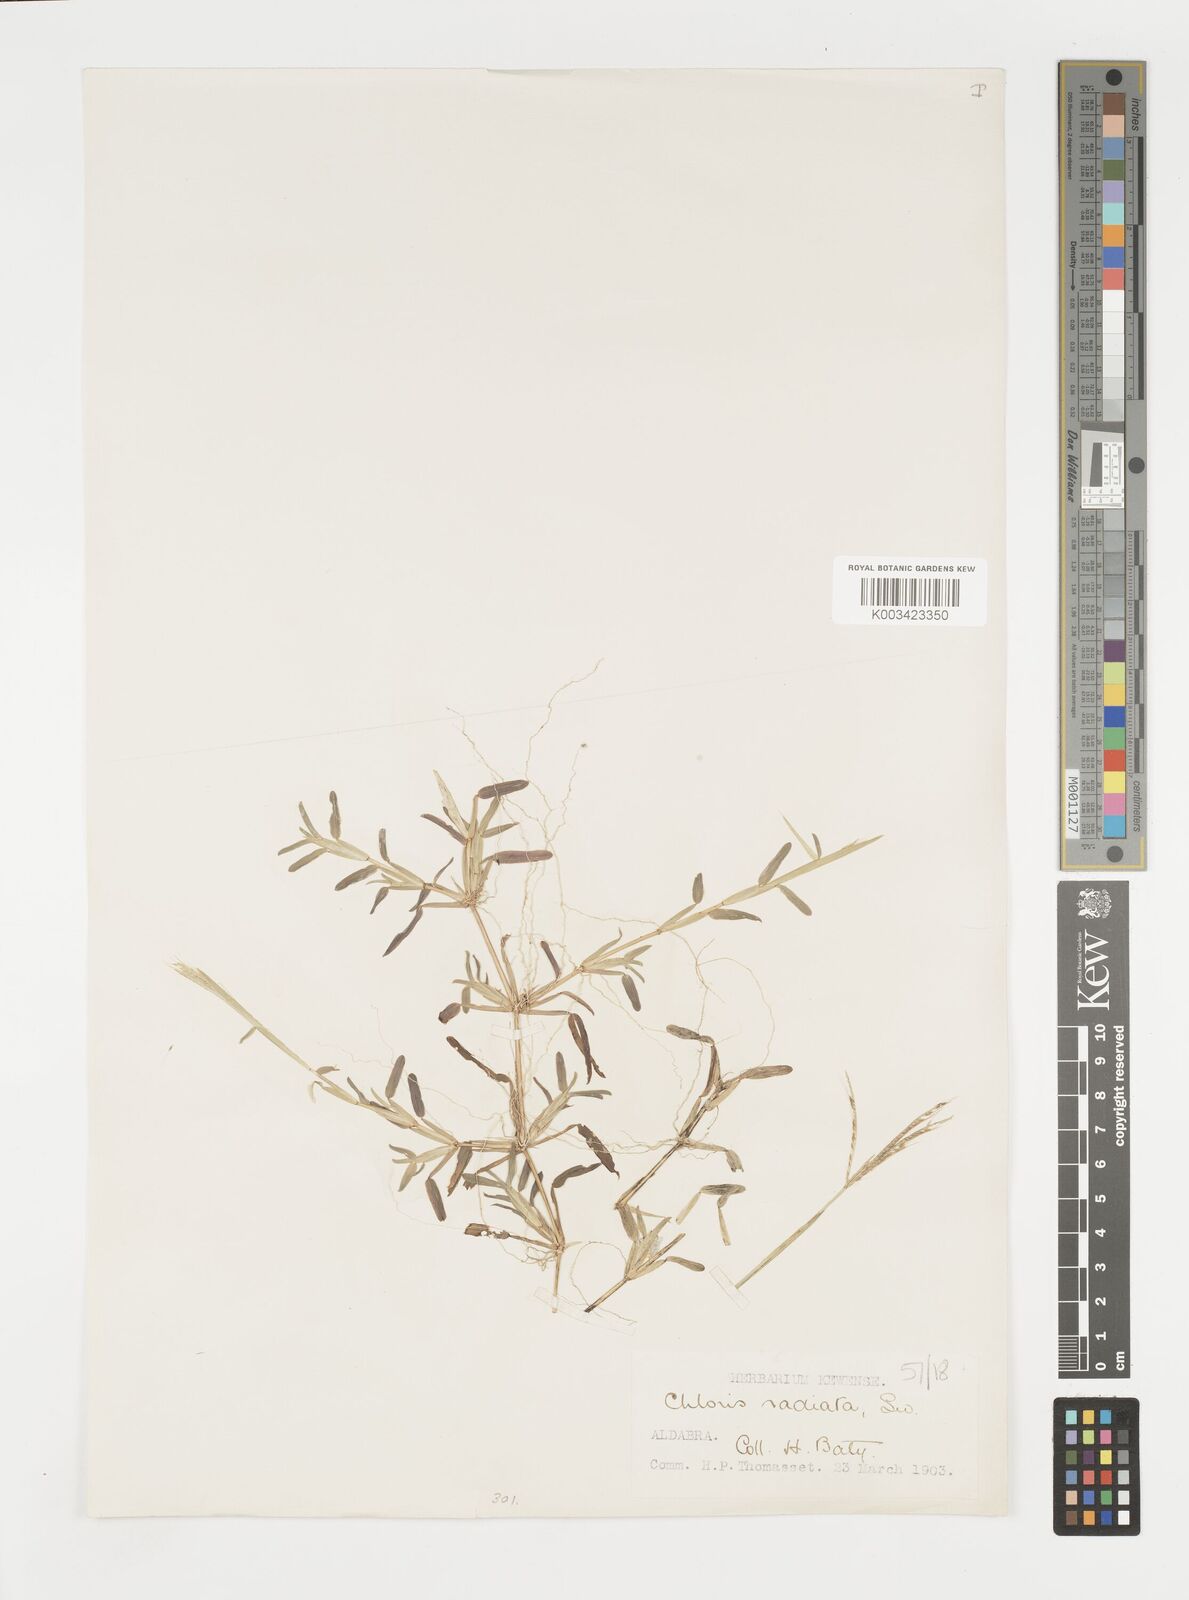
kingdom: Plantae
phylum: Tracheophyta
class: Liliopsida
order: Poales
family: Poaceae
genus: Daknopholis
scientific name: Daknopholis boivinii
